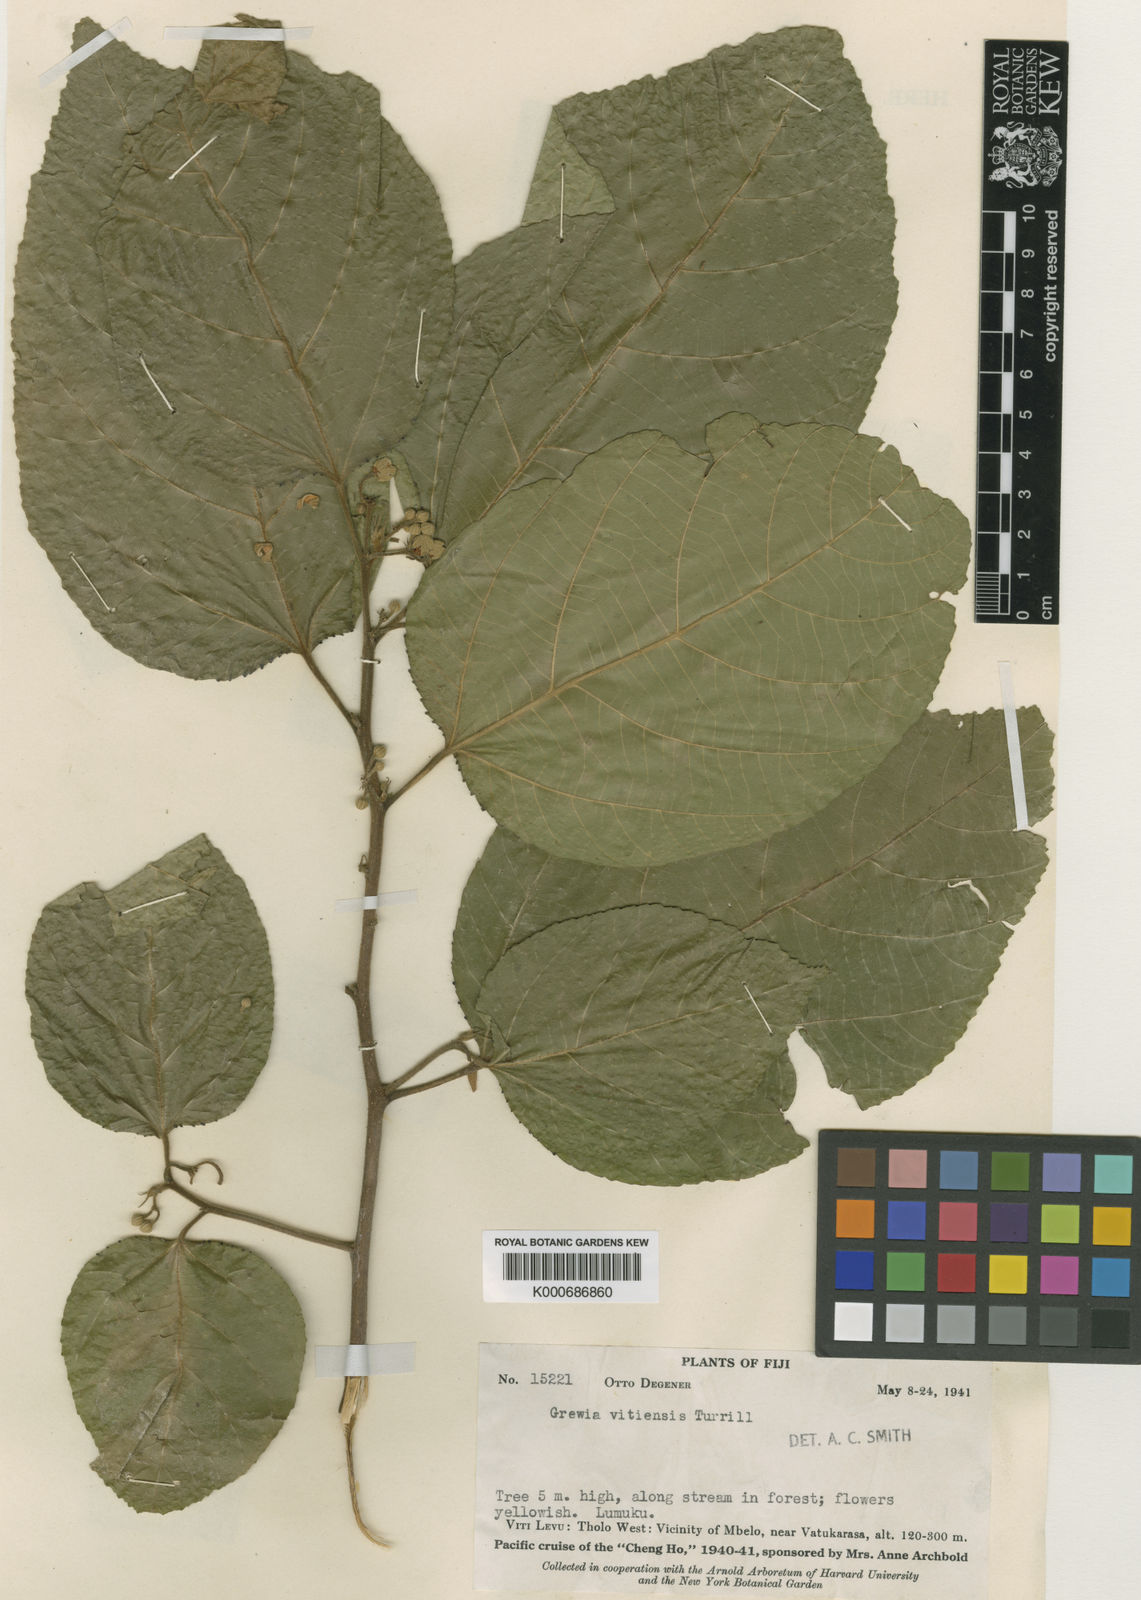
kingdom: Plantae
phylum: Tracheophyta
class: Magnoliopsida
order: Malvales
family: Malvaceae
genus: Grewia
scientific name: Grewia vitiensis
